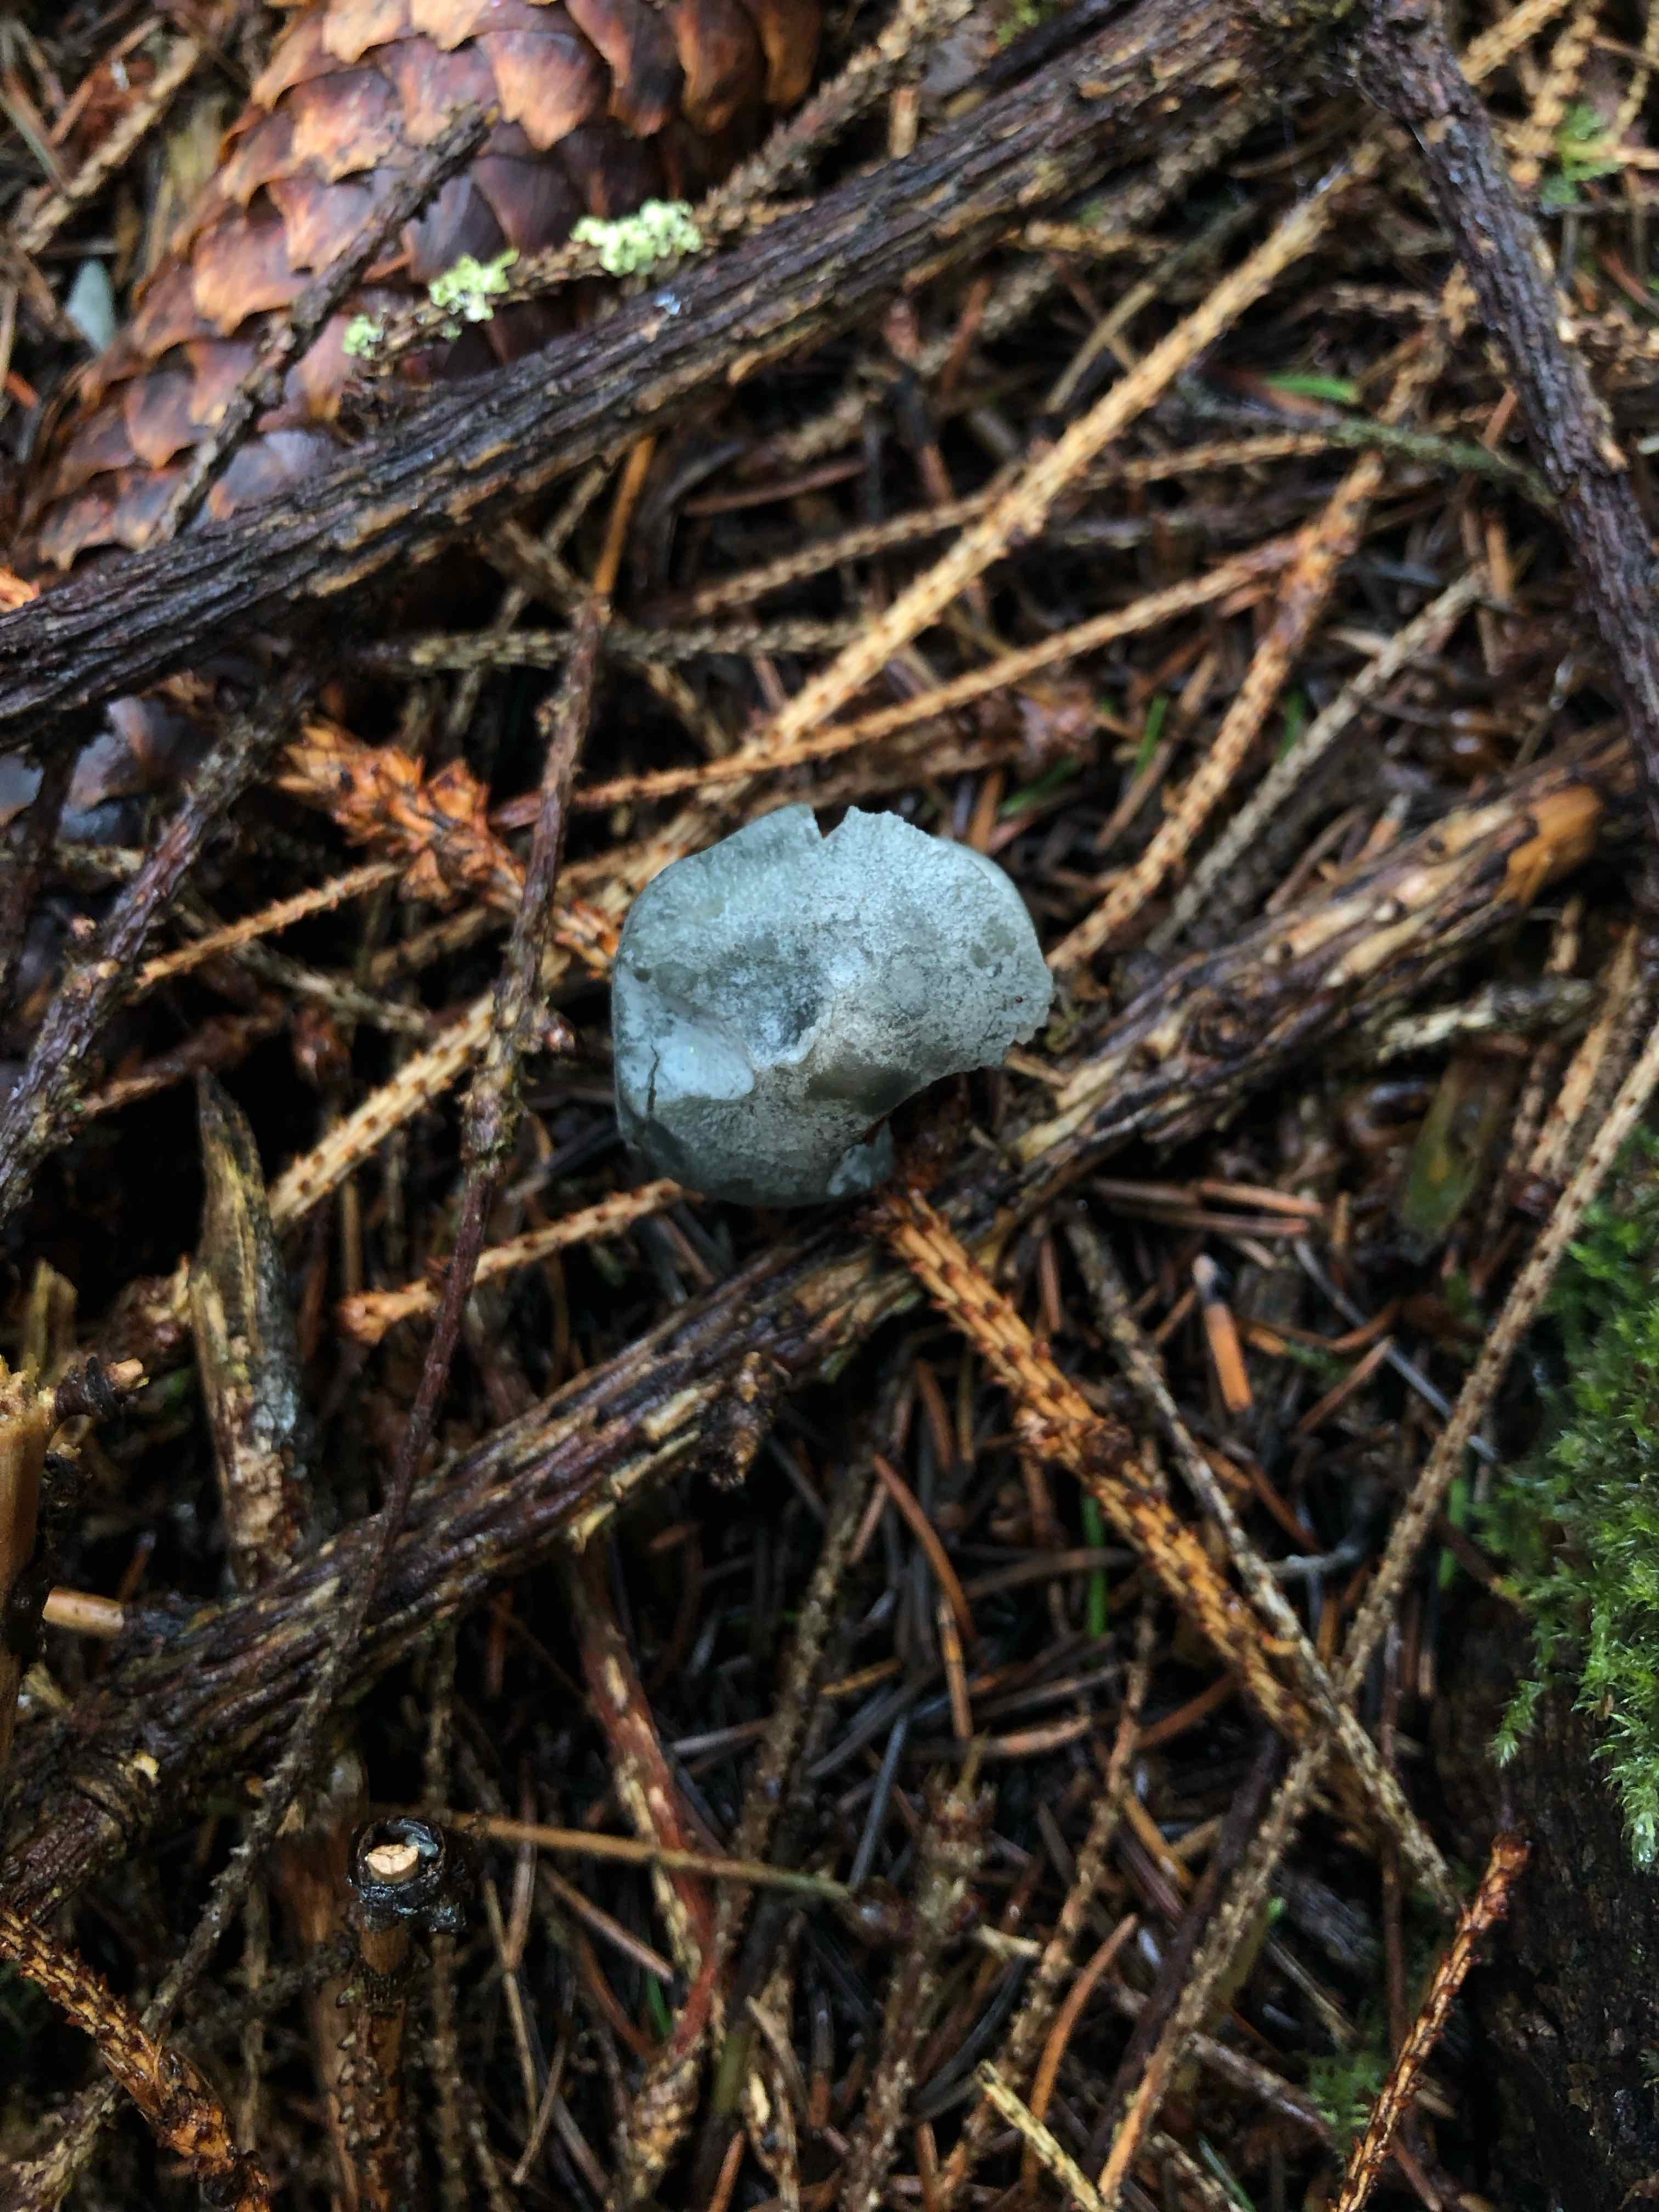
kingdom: Fungi
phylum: Basidiomycota
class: Agaricomycetes
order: Agaricales
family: Tricholomataceae
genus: Clitocybe
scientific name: Clitocybe odora
